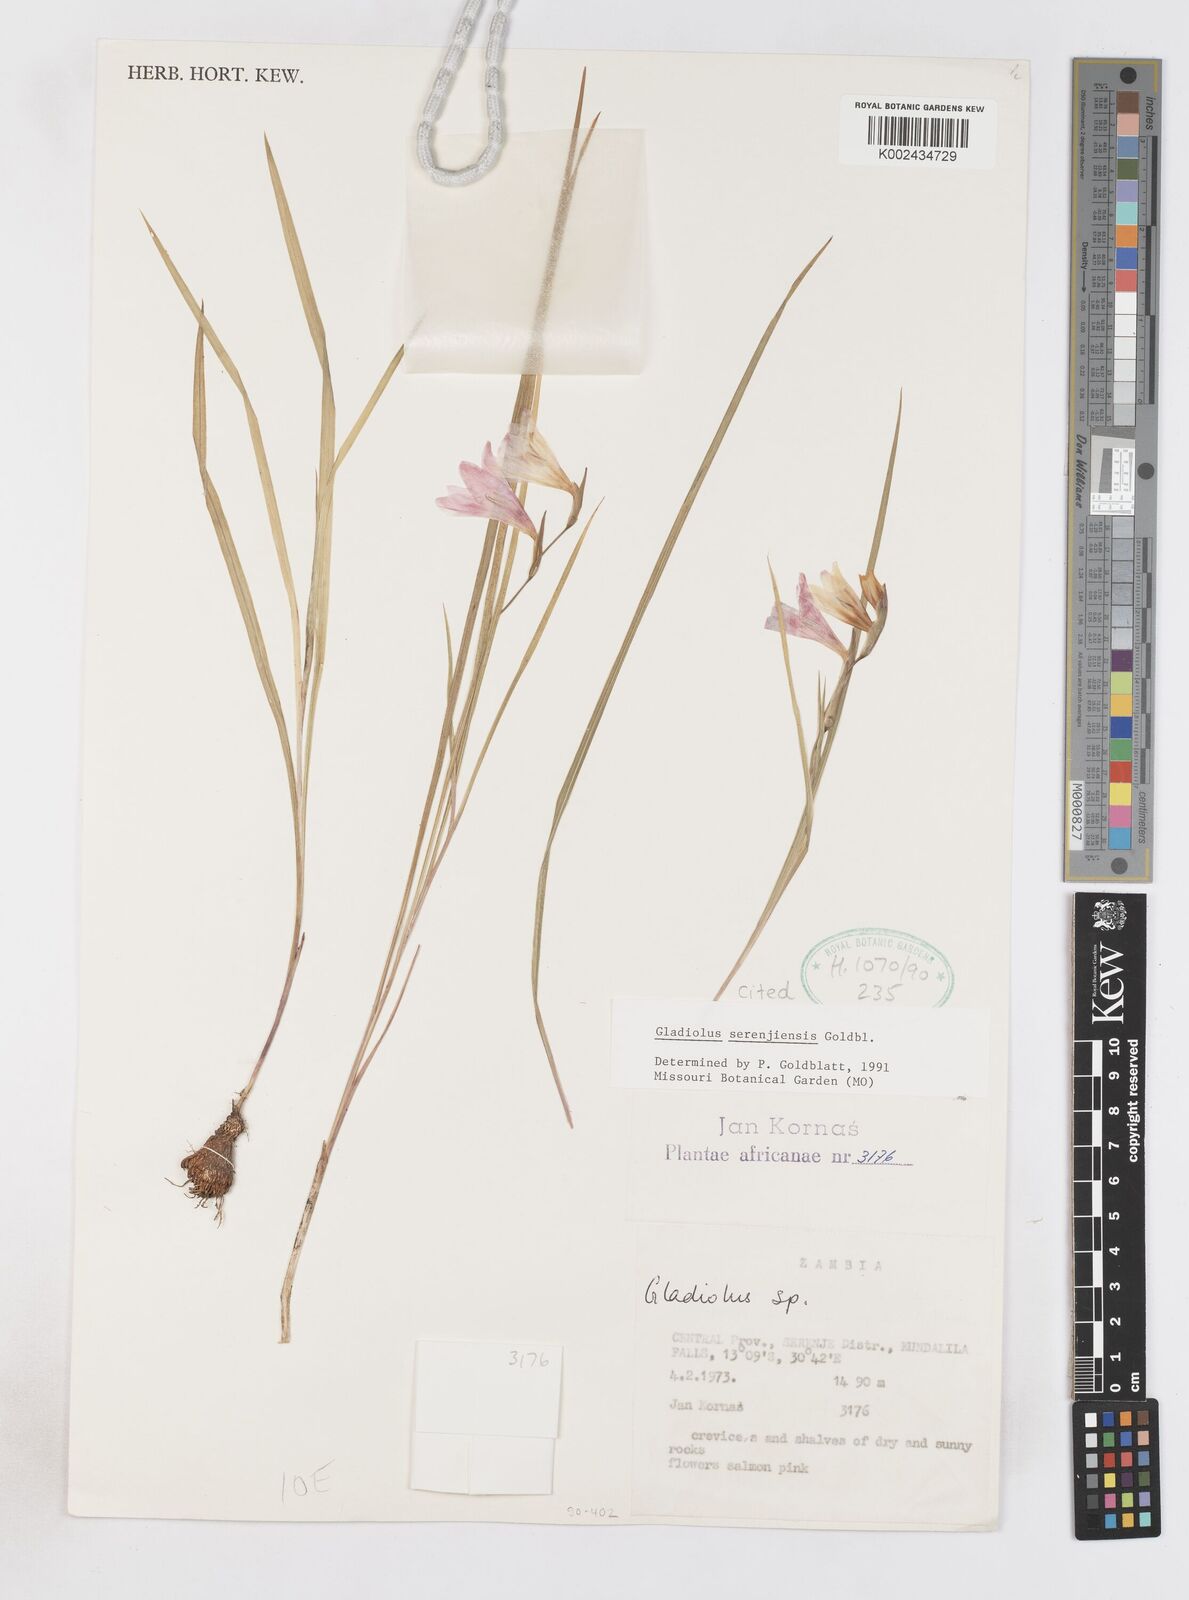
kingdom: Plantae
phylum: Tracheophyta
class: Liliopsida
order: Asparagales
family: Iridaceae
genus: Gladiolus
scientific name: Gladiolus serenjensis
